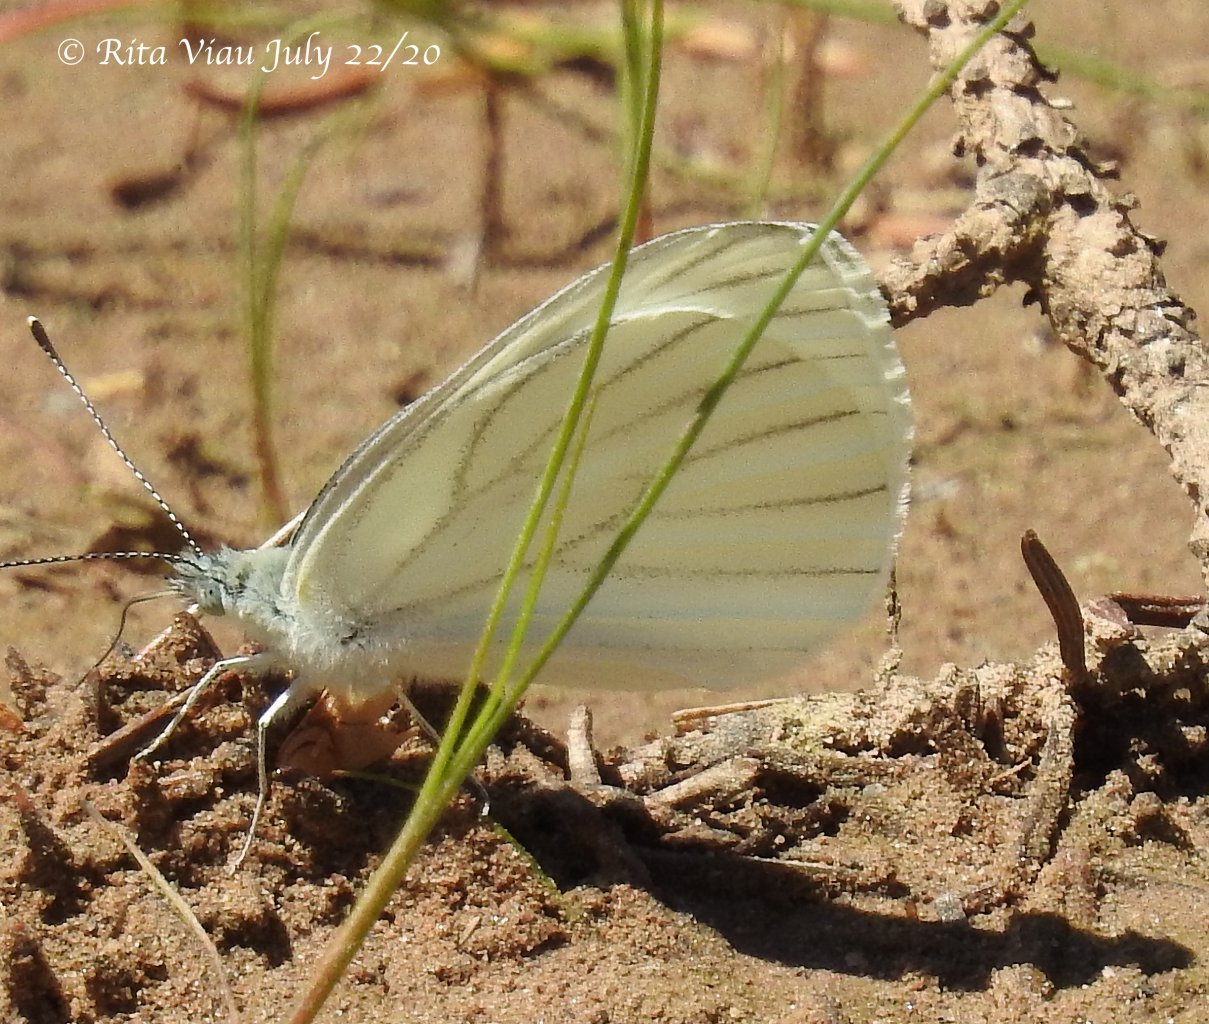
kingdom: Animalia
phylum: Arthropoda
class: Insecta
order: Lepidoptera
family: Pieridae
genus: Pieris
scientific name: Pieris oleracea
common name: Mustard White
